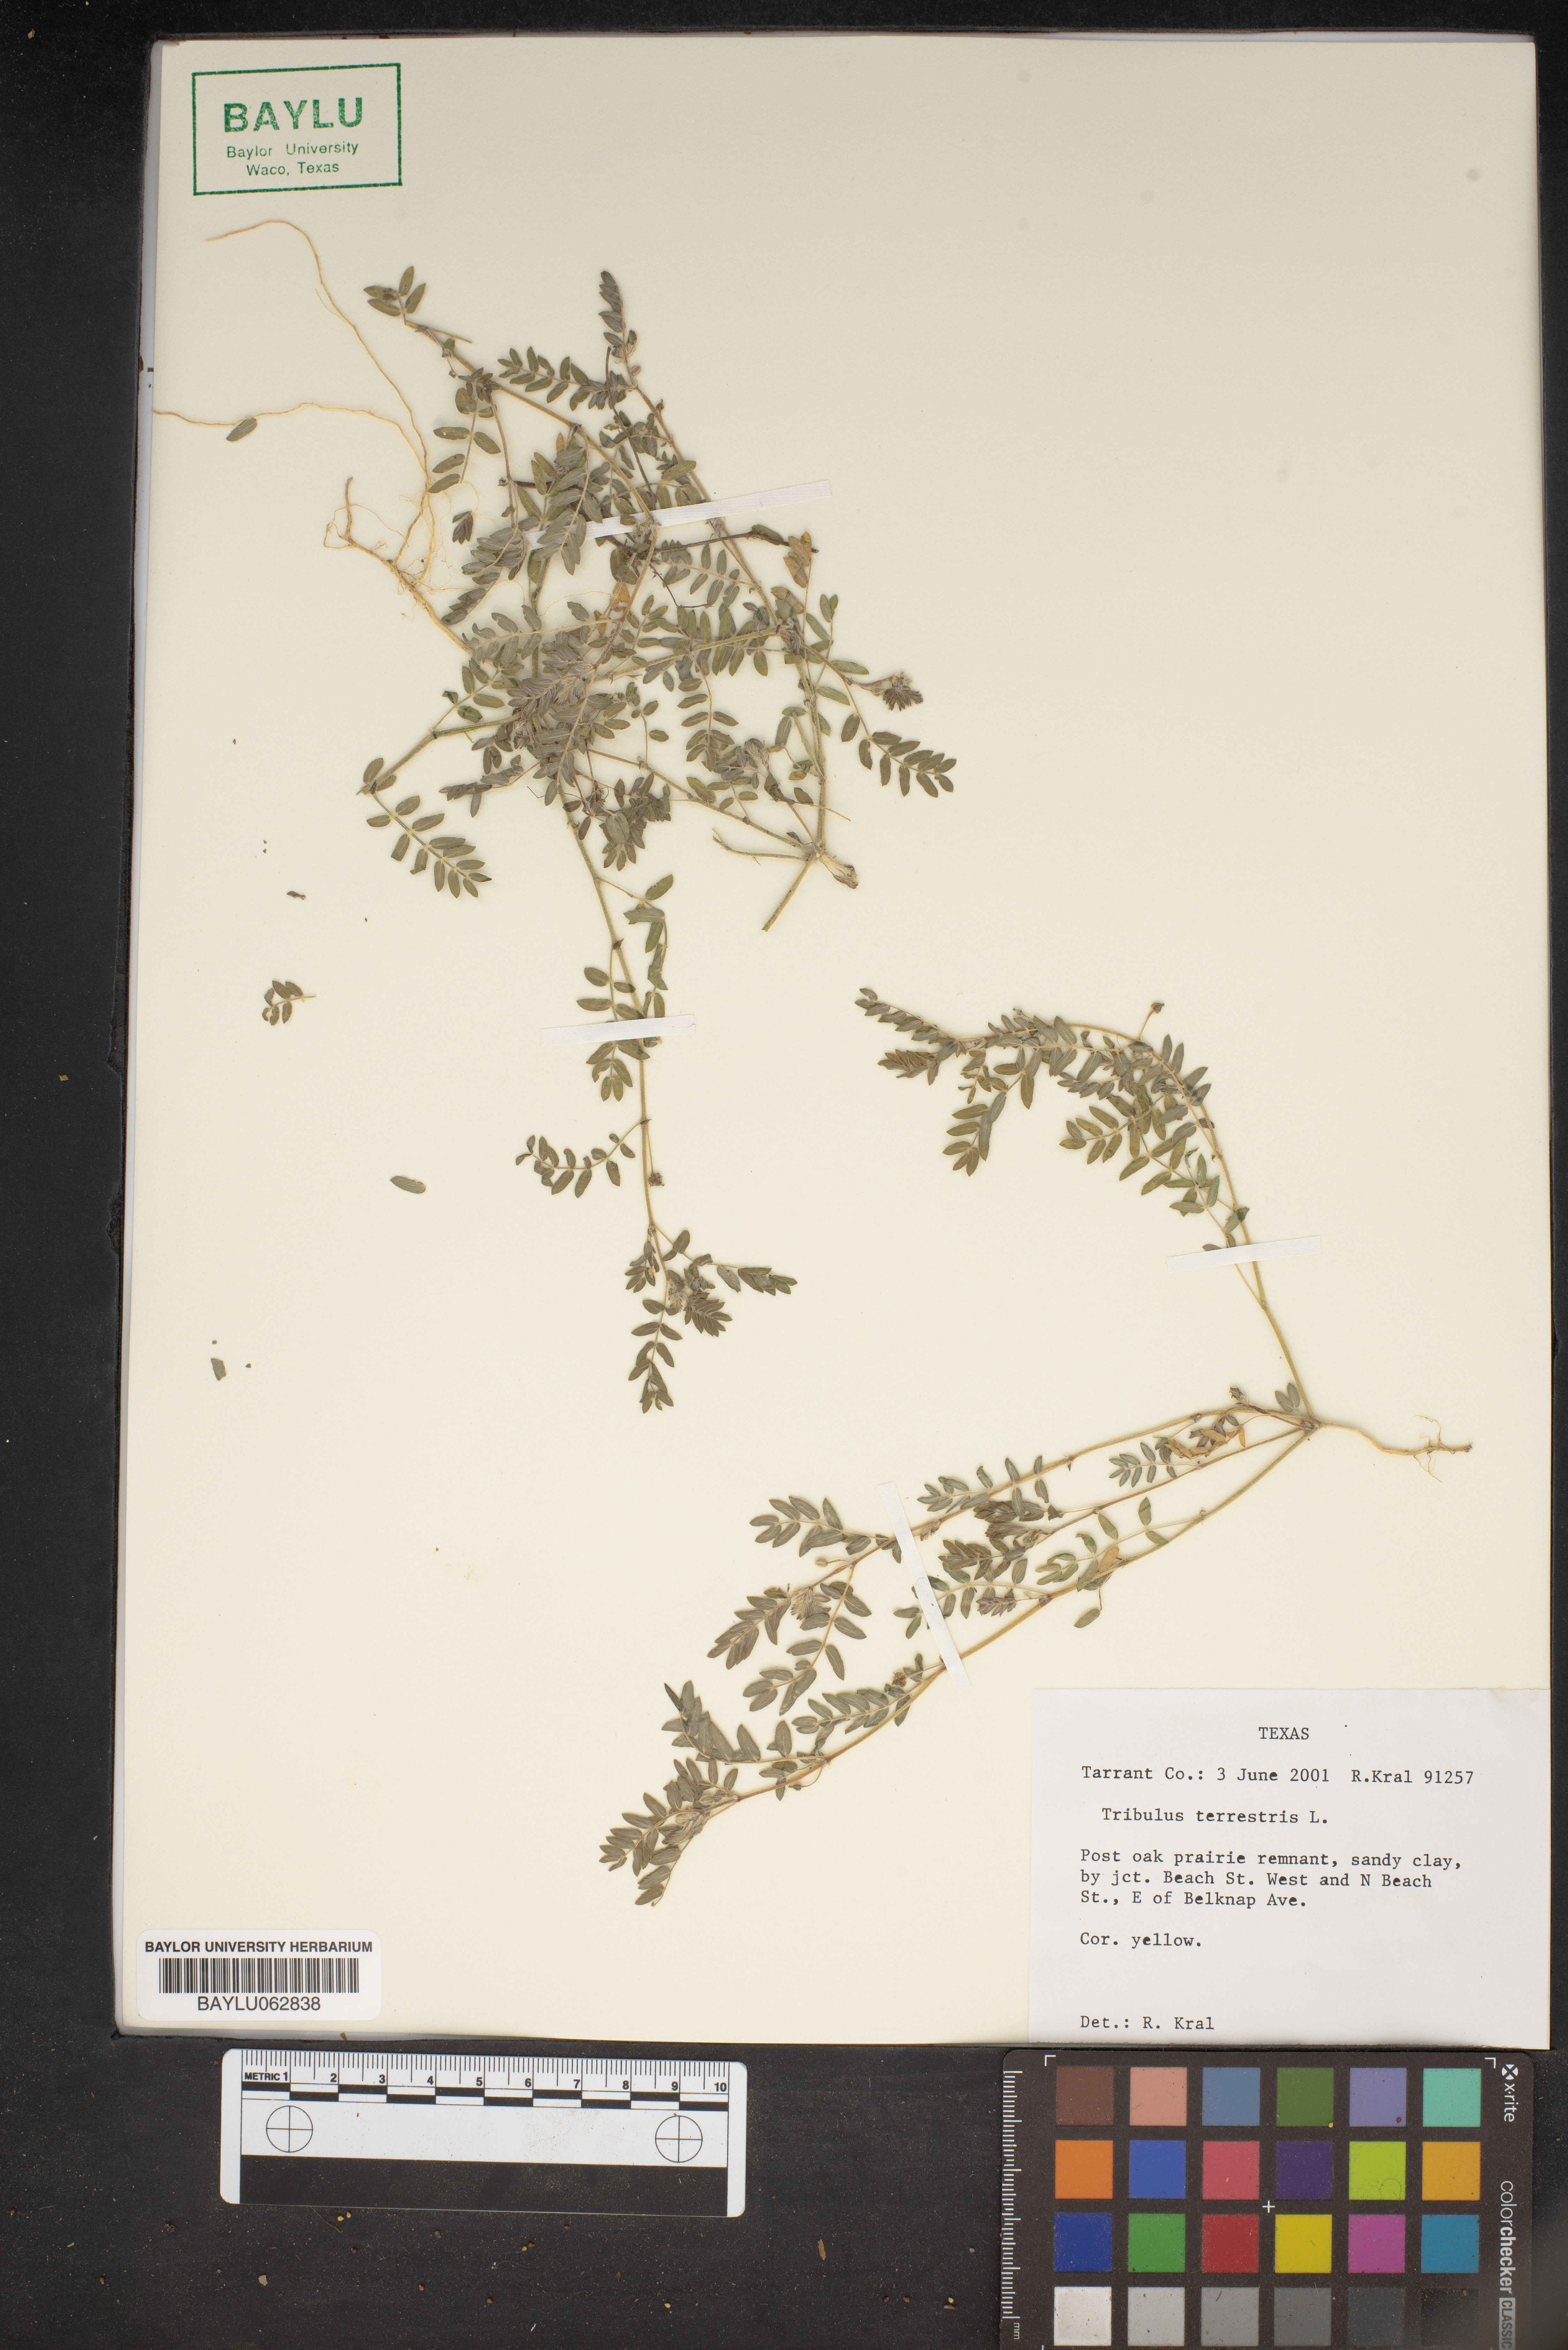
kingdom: Plantae
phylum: Tracheophyta
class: Magnoliopsida
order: Zygophyllales
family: Zygophyllaceae
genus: Tribulus
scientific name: Tribulus terrestris
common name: Puncturevine
